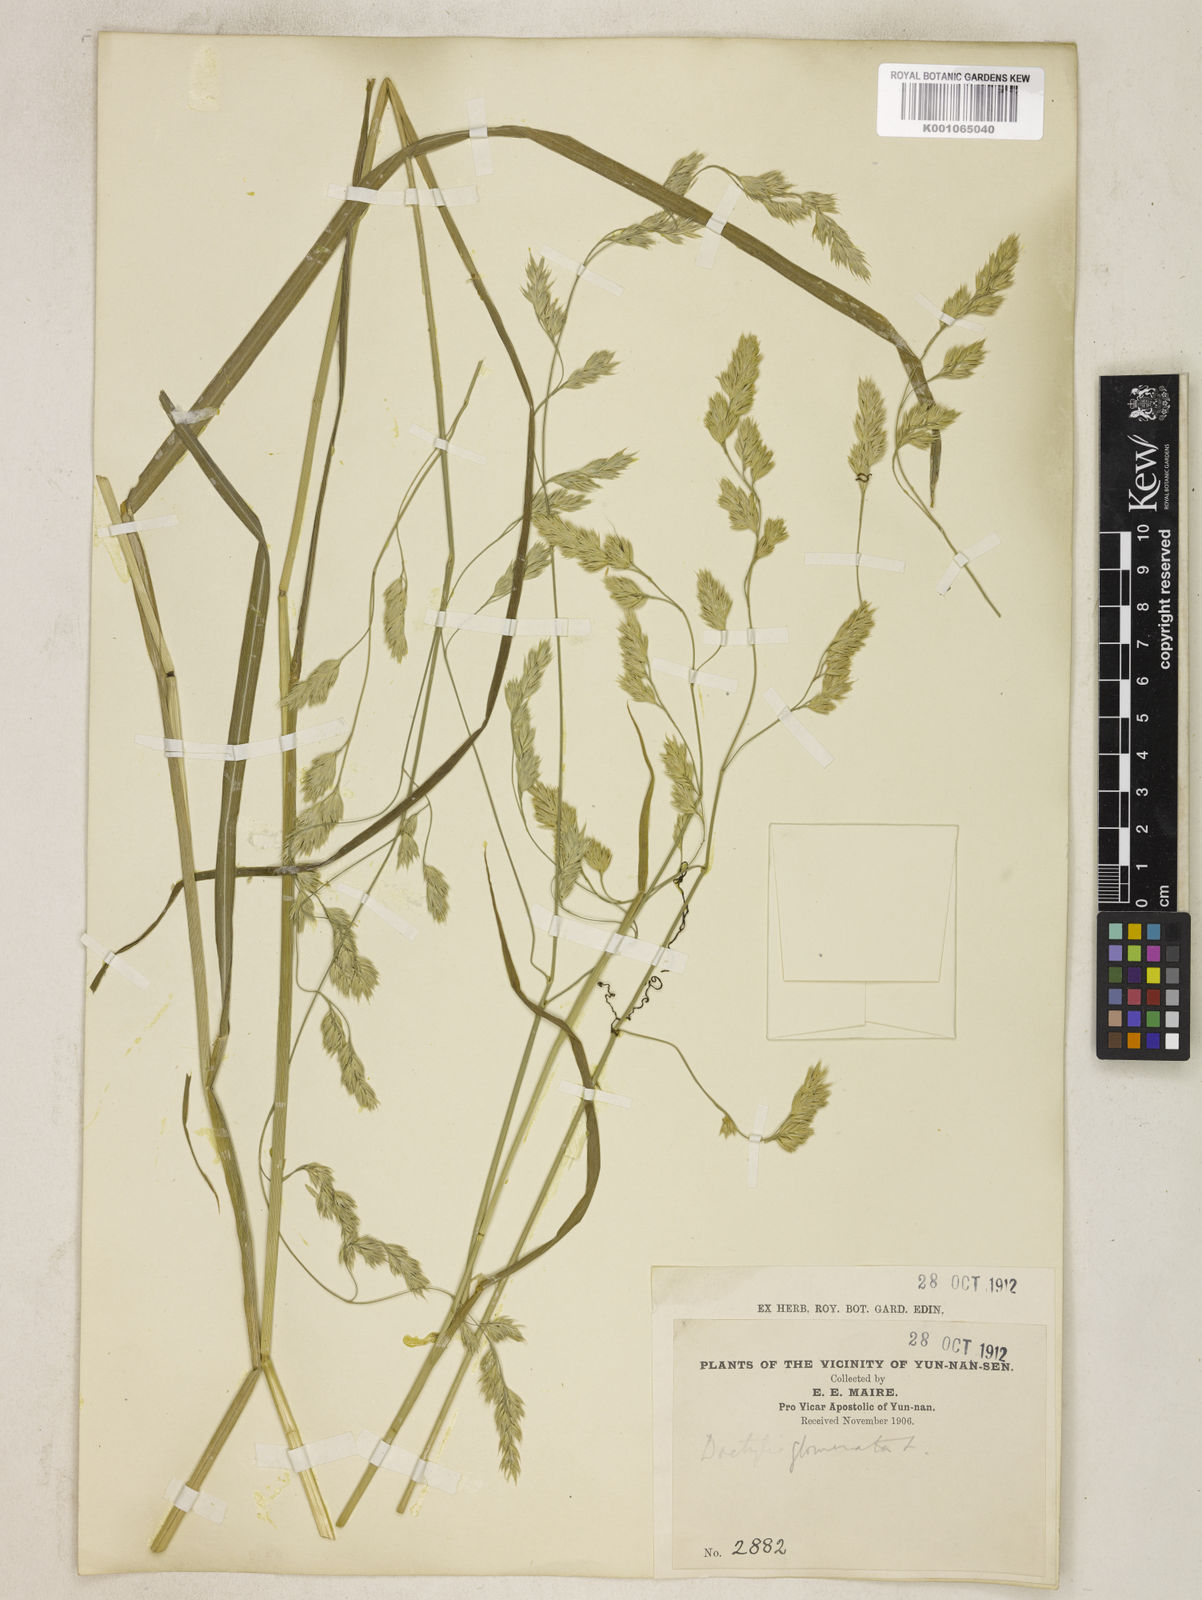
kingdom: Plantae
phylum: Tracheophyta
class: Liliopsida
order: Poales
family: Poaceae
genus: Dactylis
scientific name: Dactylis glomerata
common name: Orchardgrass
